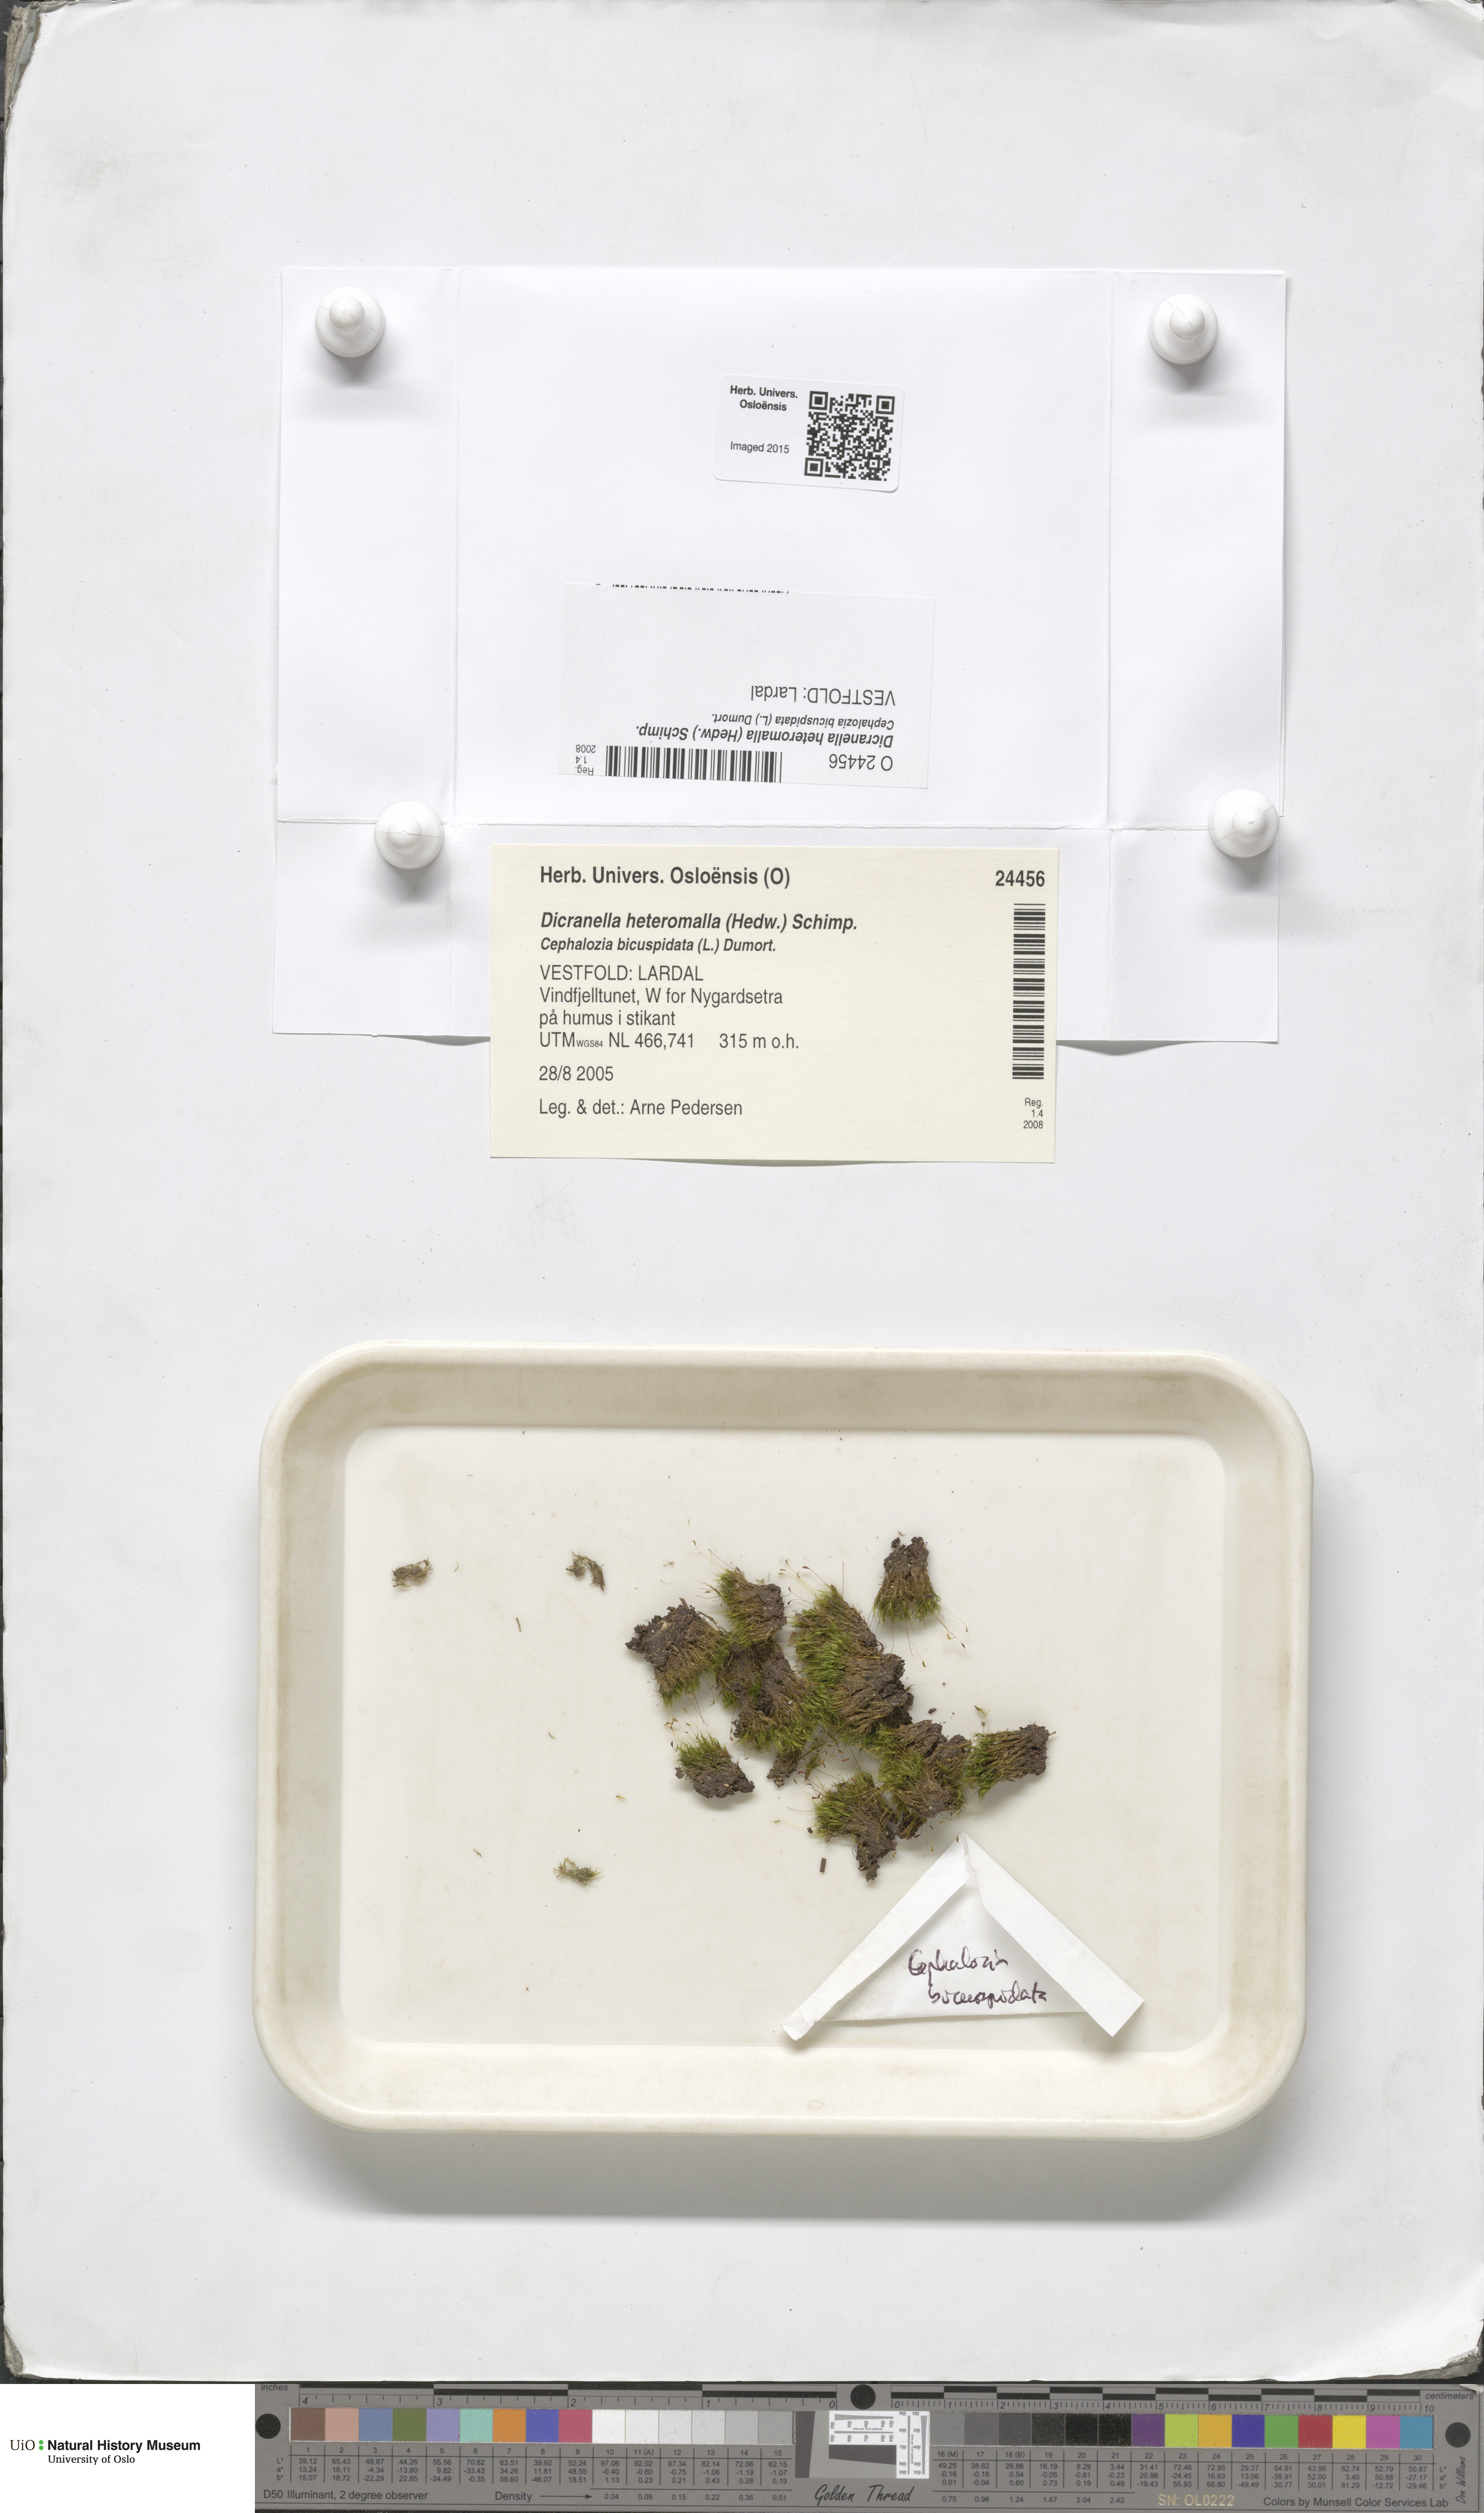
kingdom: Plantae
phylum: Bryophyta
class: Bryopsida
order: Dicranales
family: Dicranellaceae
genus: Dicranella
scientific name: Dicranella heteromalla
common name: Silky forklet moss
